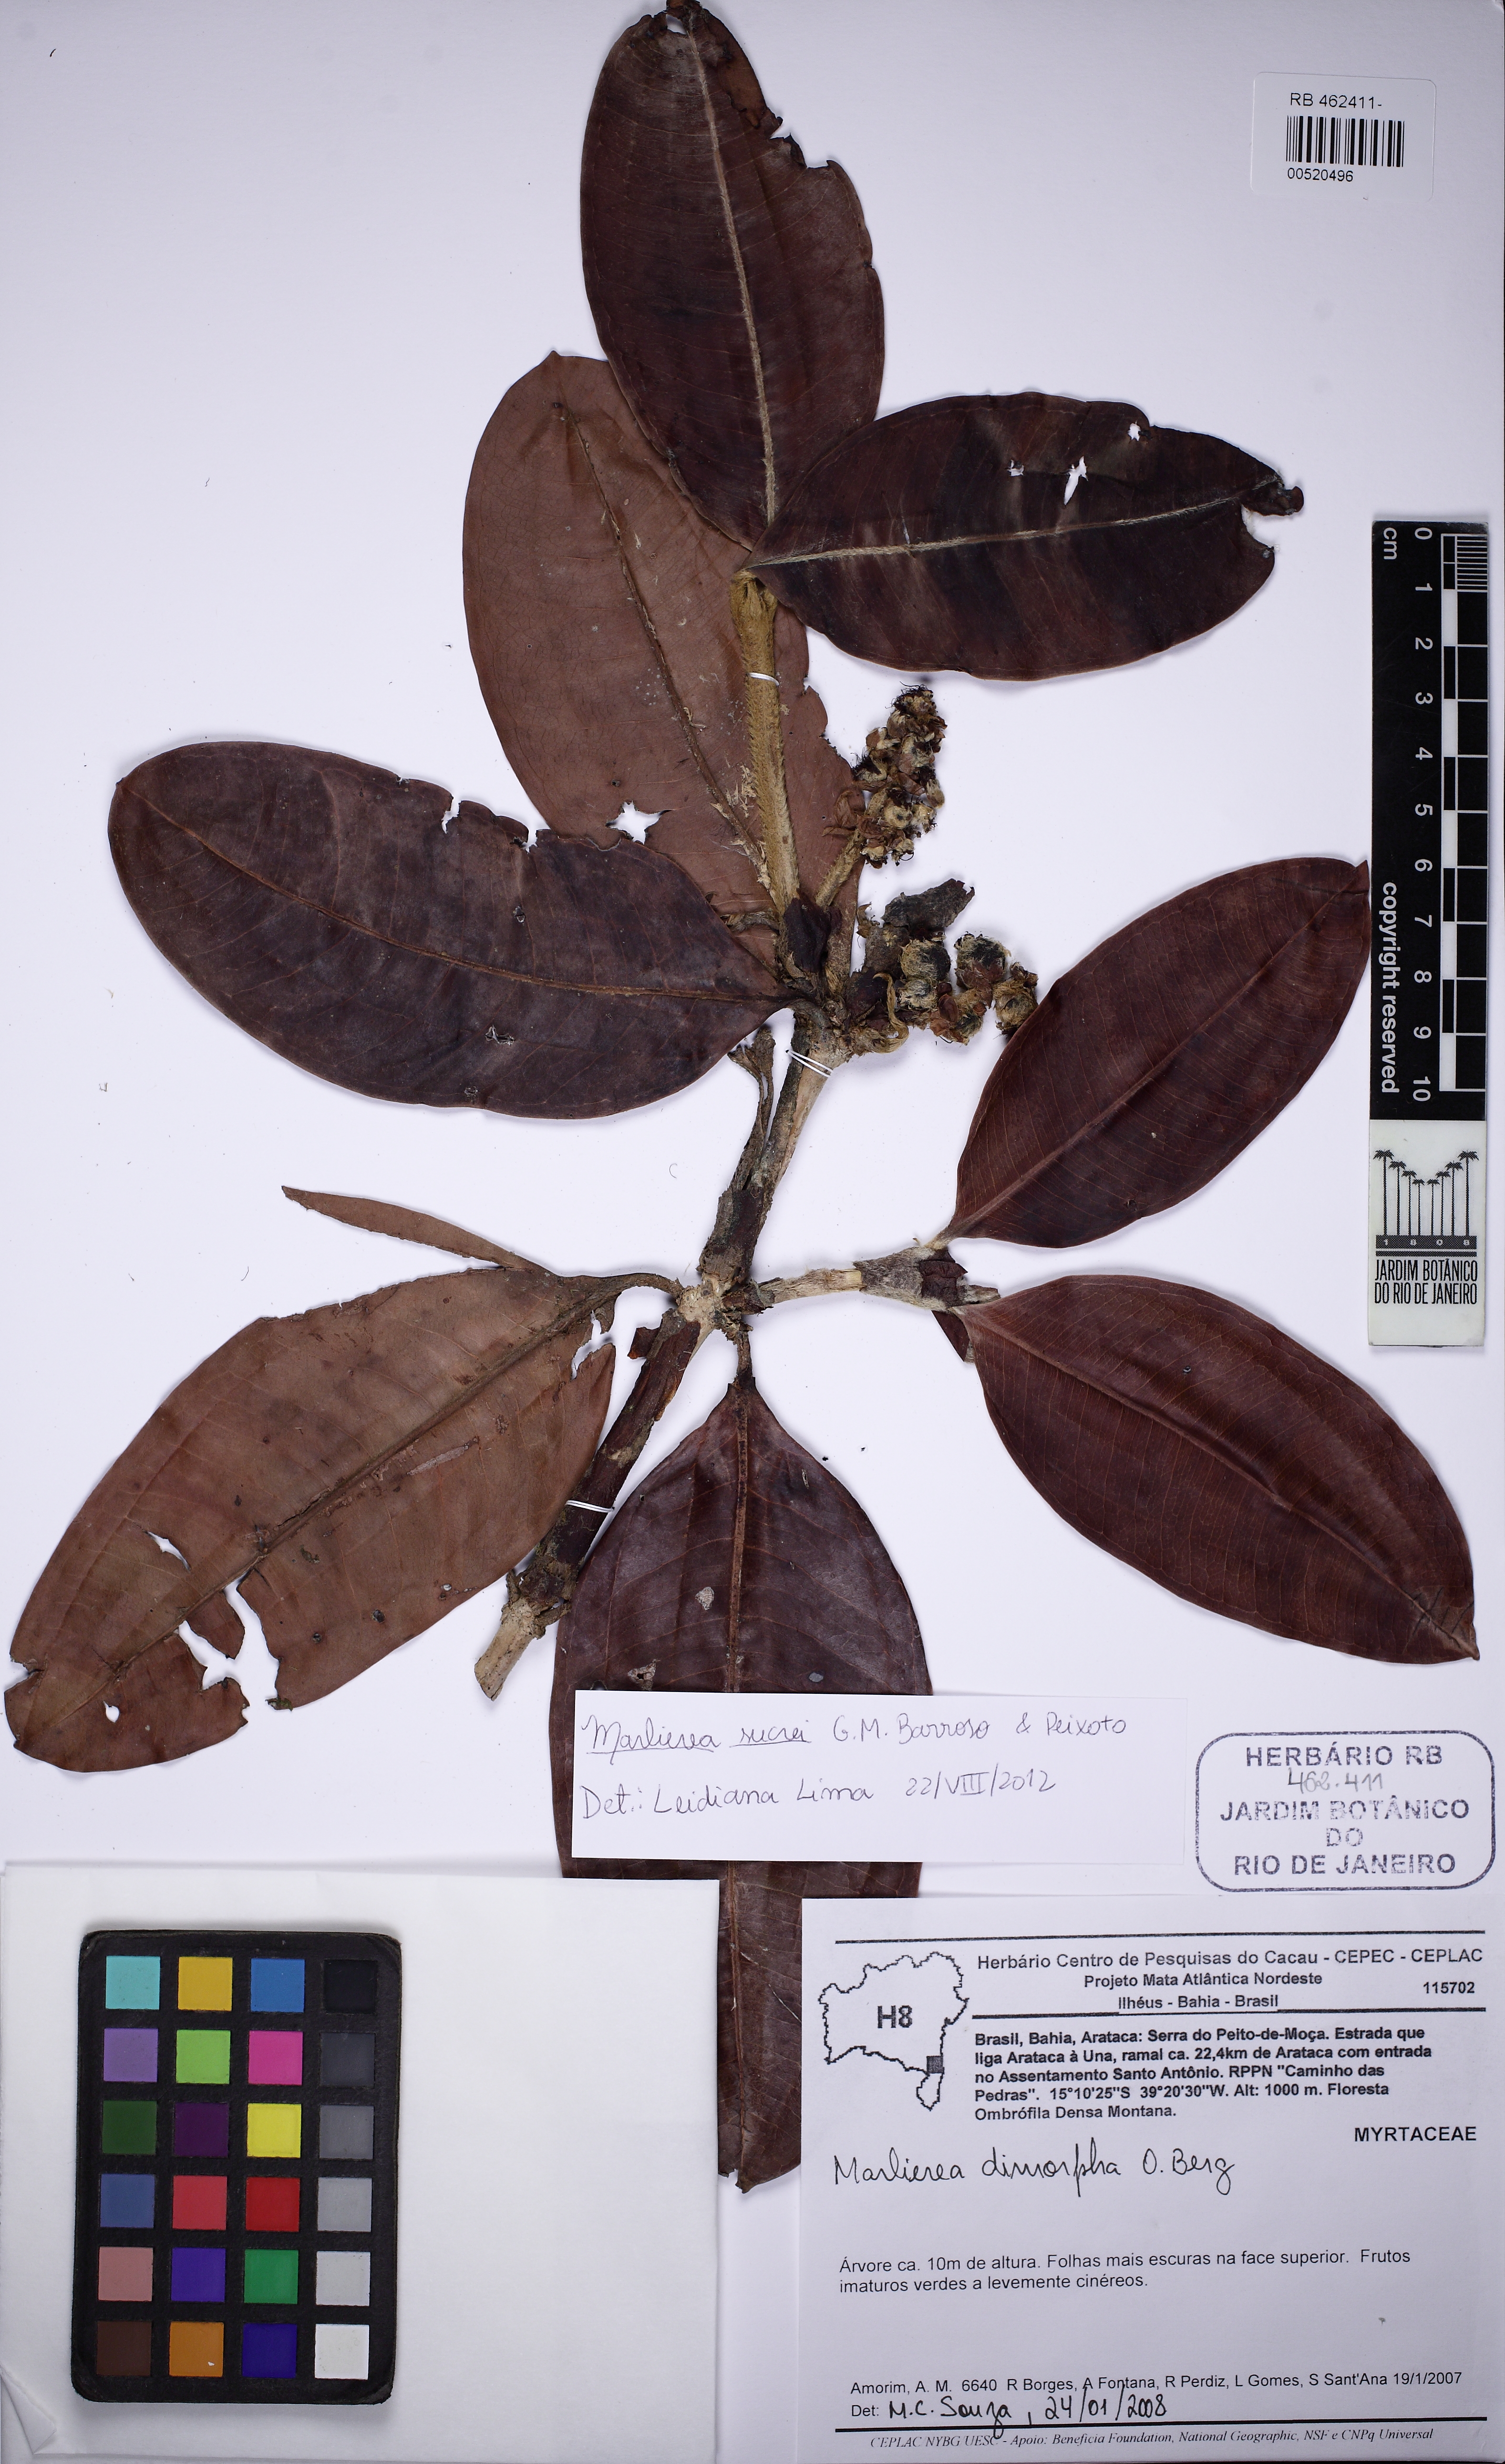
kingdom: Plantae
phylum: Tracheophyta
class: Magnoliopsida
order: Myrtales
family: Myrtaceae
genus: Myrcia
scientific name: Myrcia sucrei
